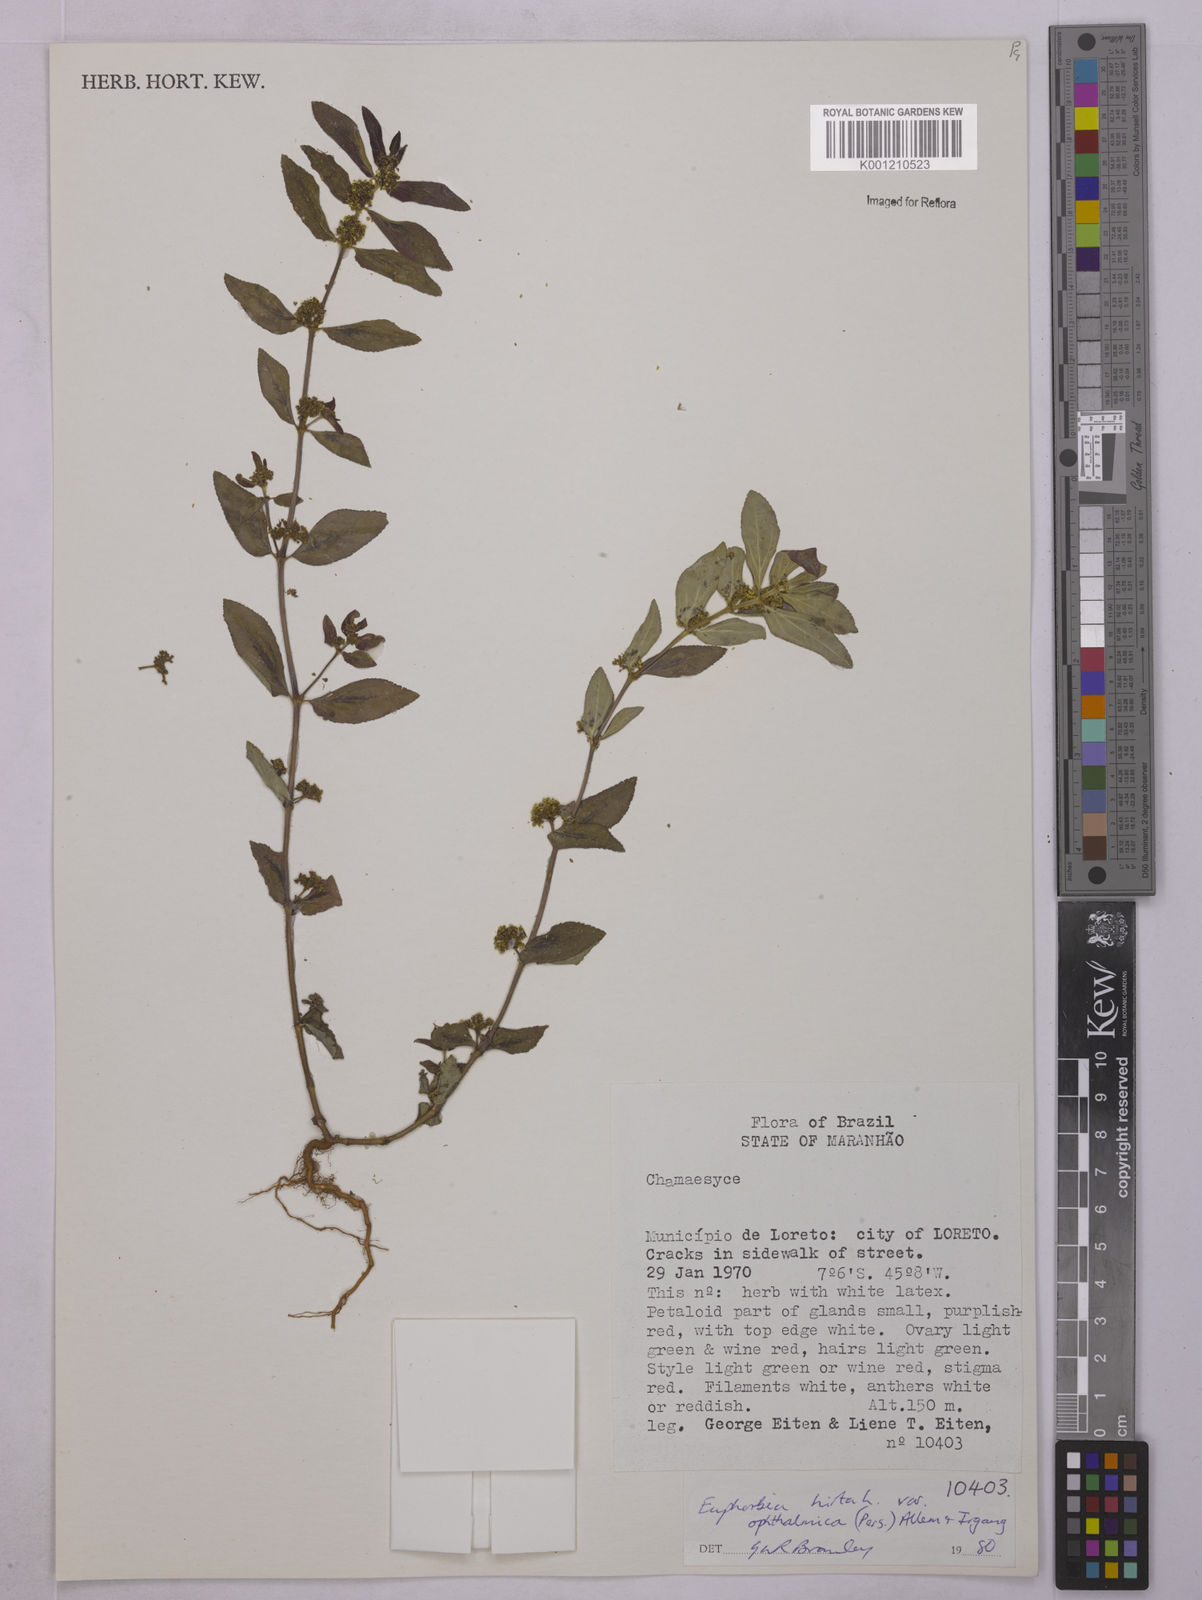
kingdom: Plantae
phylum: Tracheophyta
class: Magnoliopsida
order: Malpighiales
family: Euphorbiaceae
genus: Euphorbia
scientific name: Euphorbia ophthalmica
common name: Florida hammock sandmat
